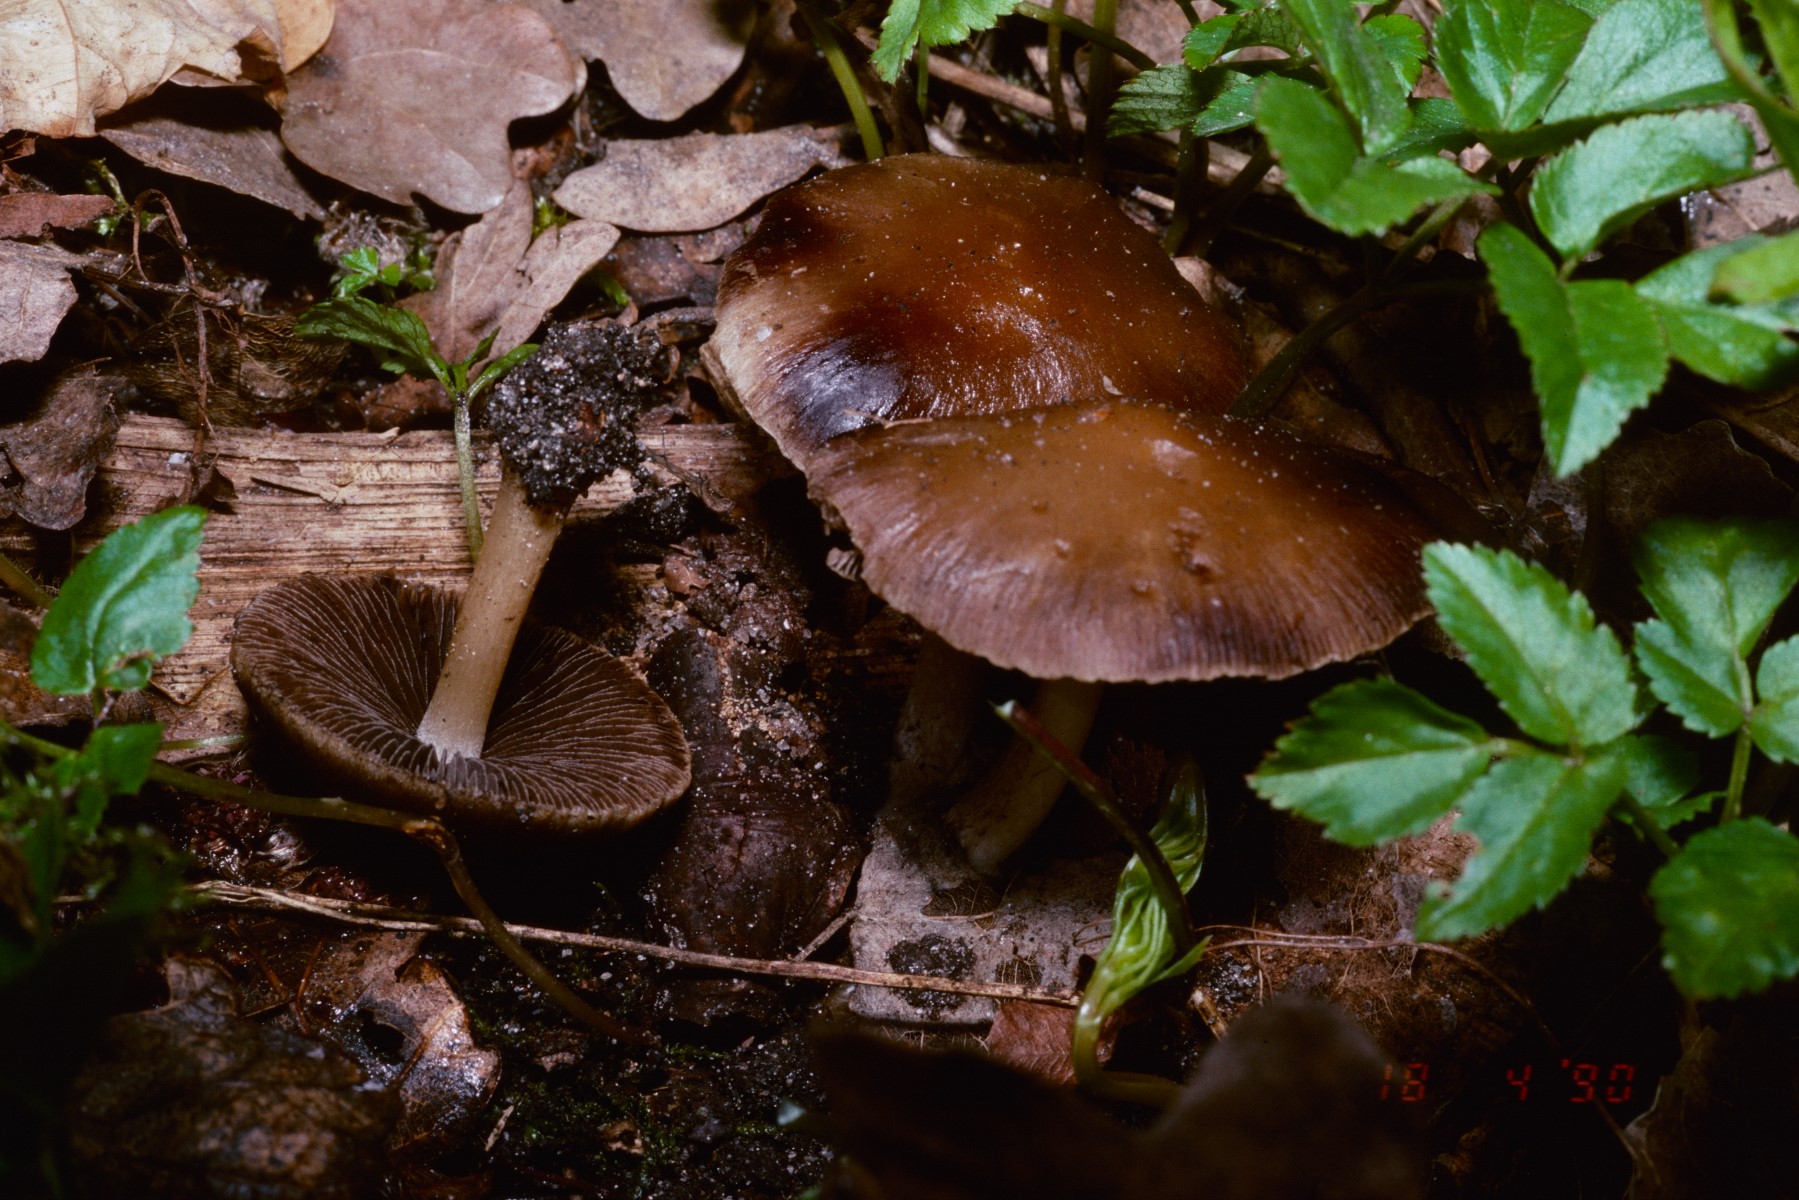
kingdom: Fungi
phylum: Basidiomycota
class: Agaricomycetes
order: Agaricales
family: Psathyrellaceae
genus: Psathyrella
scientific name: Psathyrella spadiceogrisea
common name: gråbrun mørkhat
